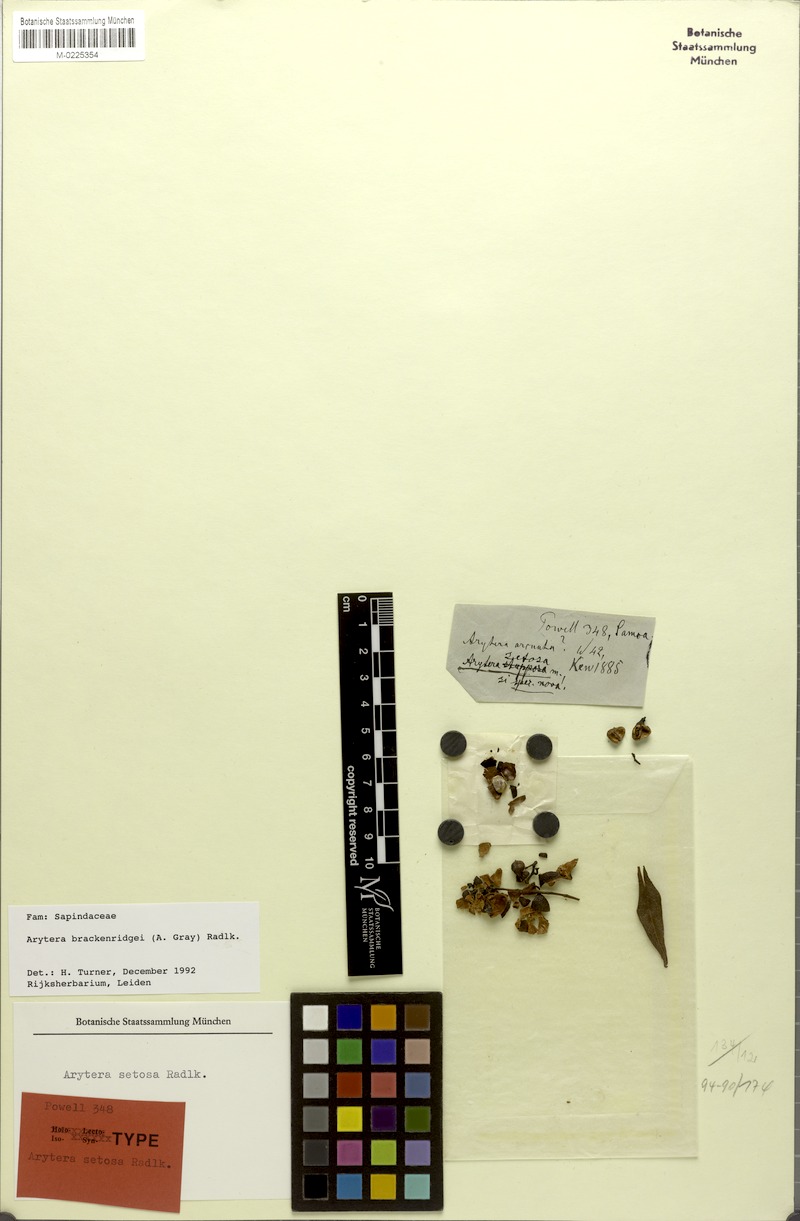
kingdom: Plantae
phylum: Tracheophyta
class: Magnoliopsida
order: Sapindales
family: Sapindaceae
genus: Lepidocupania
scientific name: Lepidocupania brackenridgei
